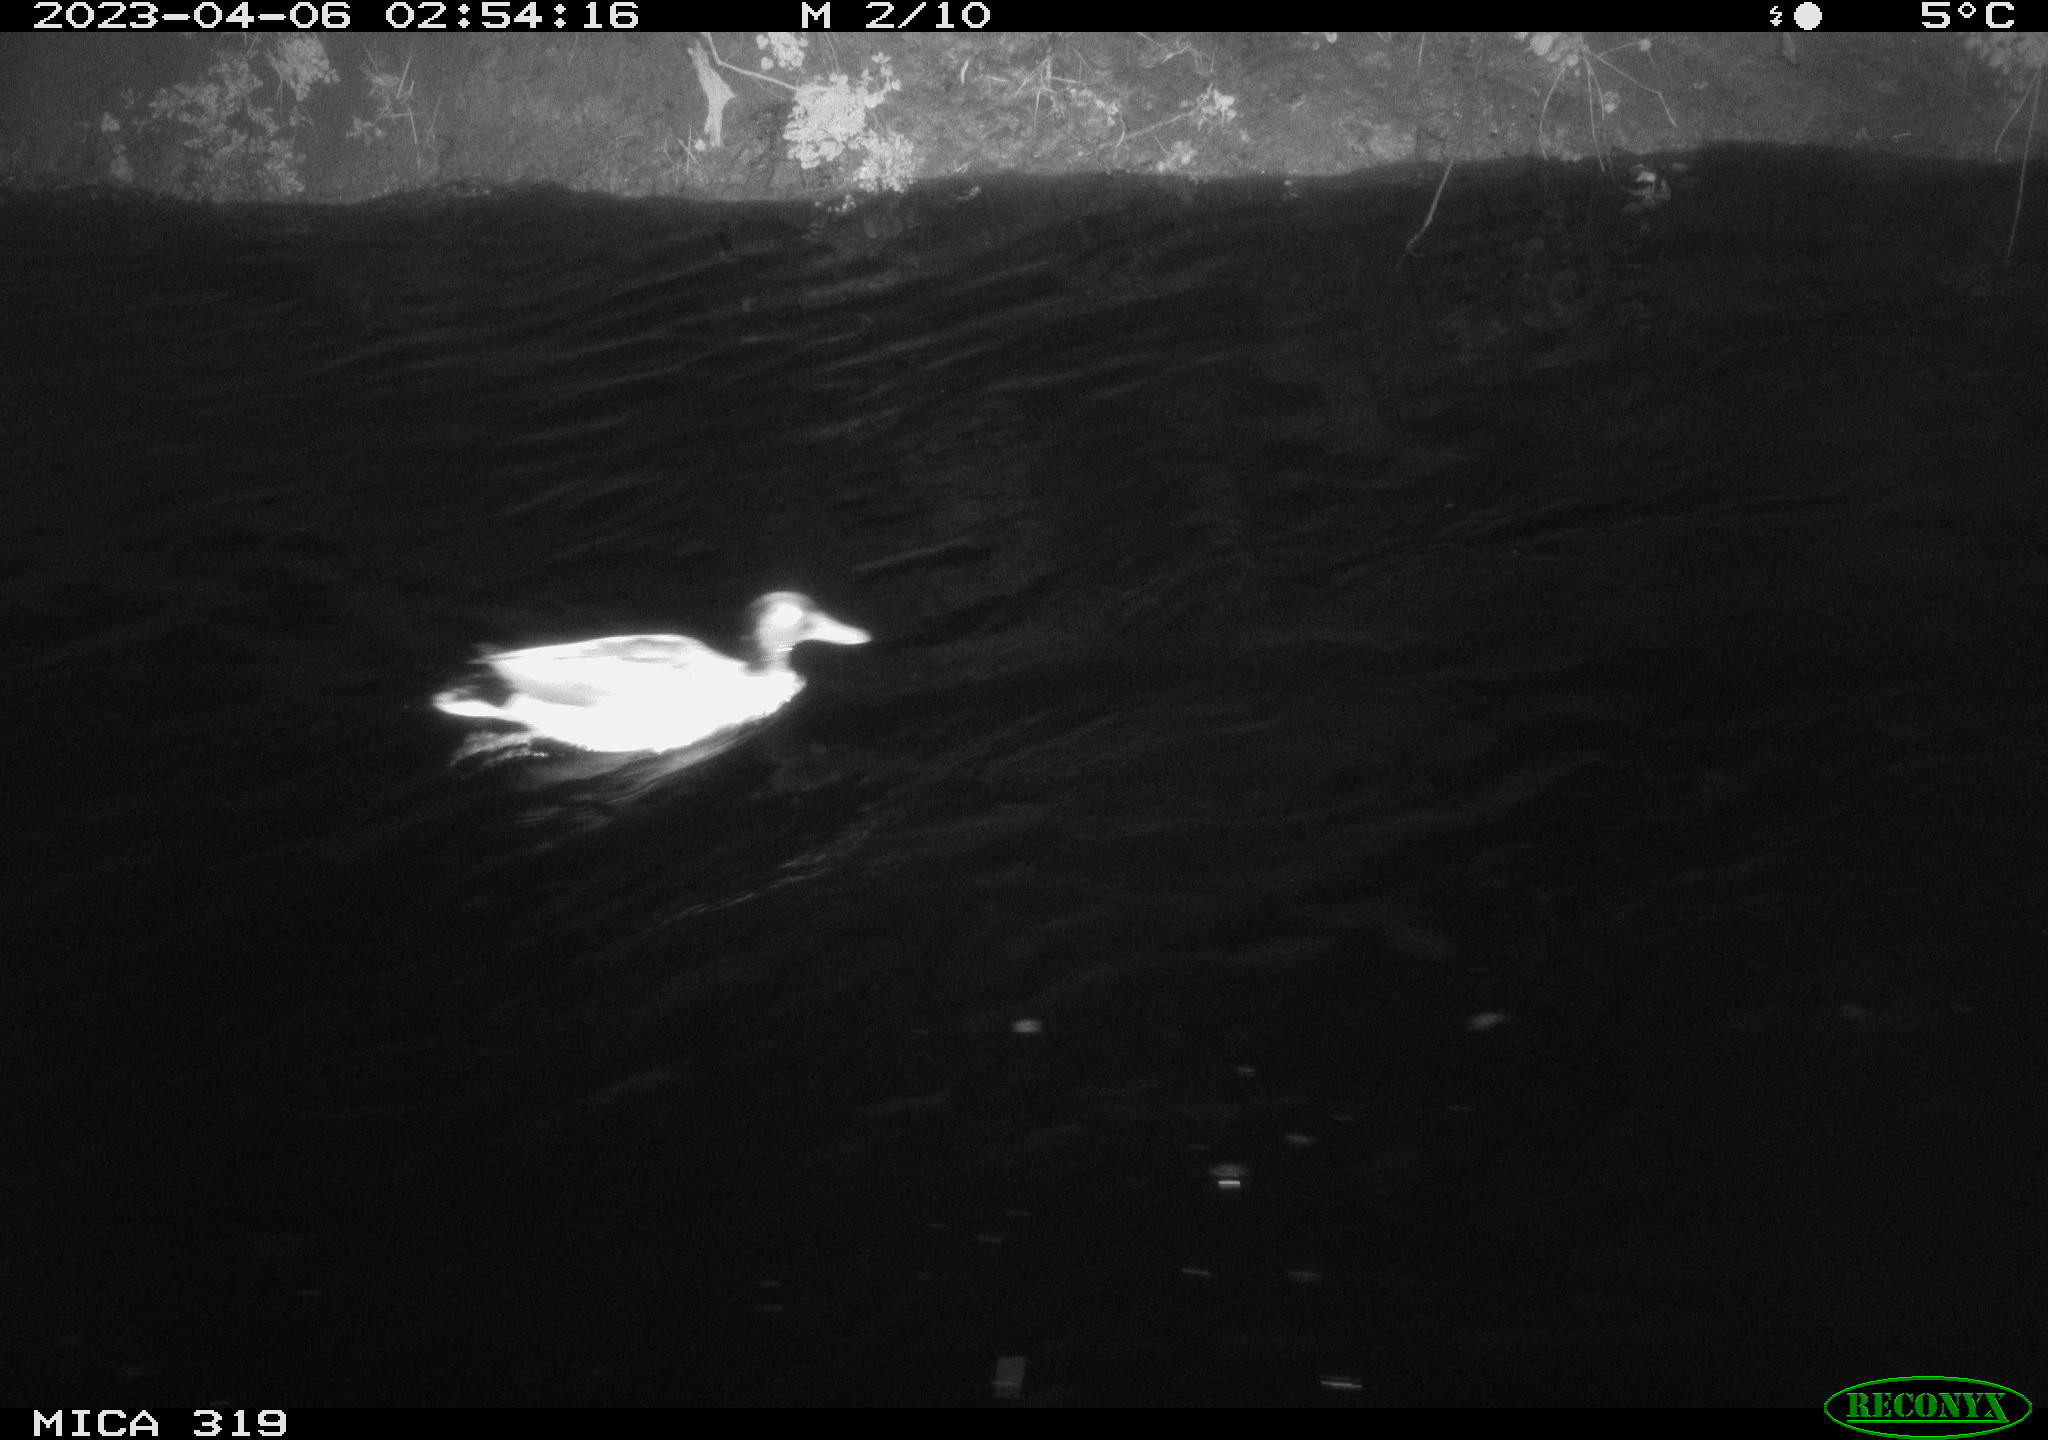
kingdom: Animalia
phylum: Chordata
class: Aves
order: Anseriformes
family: Anatidae
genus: Anas
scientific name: Anas
